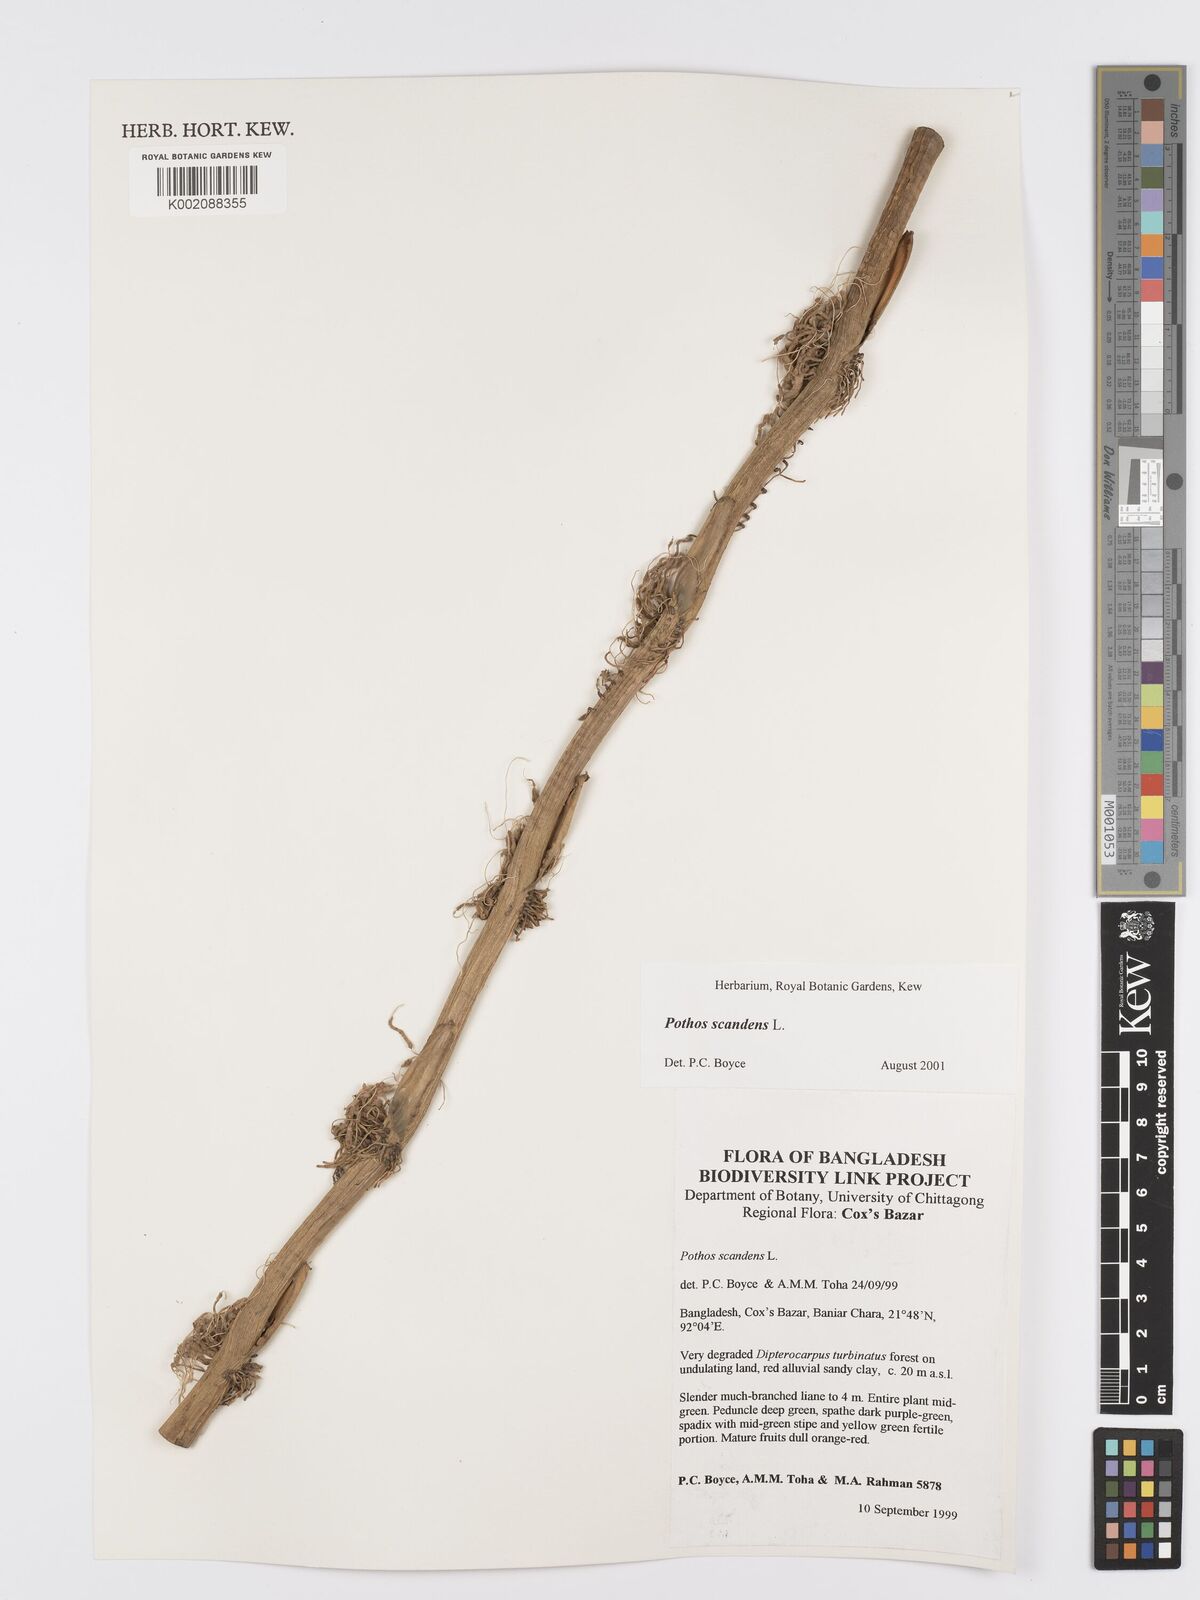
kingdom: Plantae
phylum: Tracheophyta
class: Liliopsida
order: Alismatales
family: Araceae
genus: Pothos
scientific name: Pothos scandens
